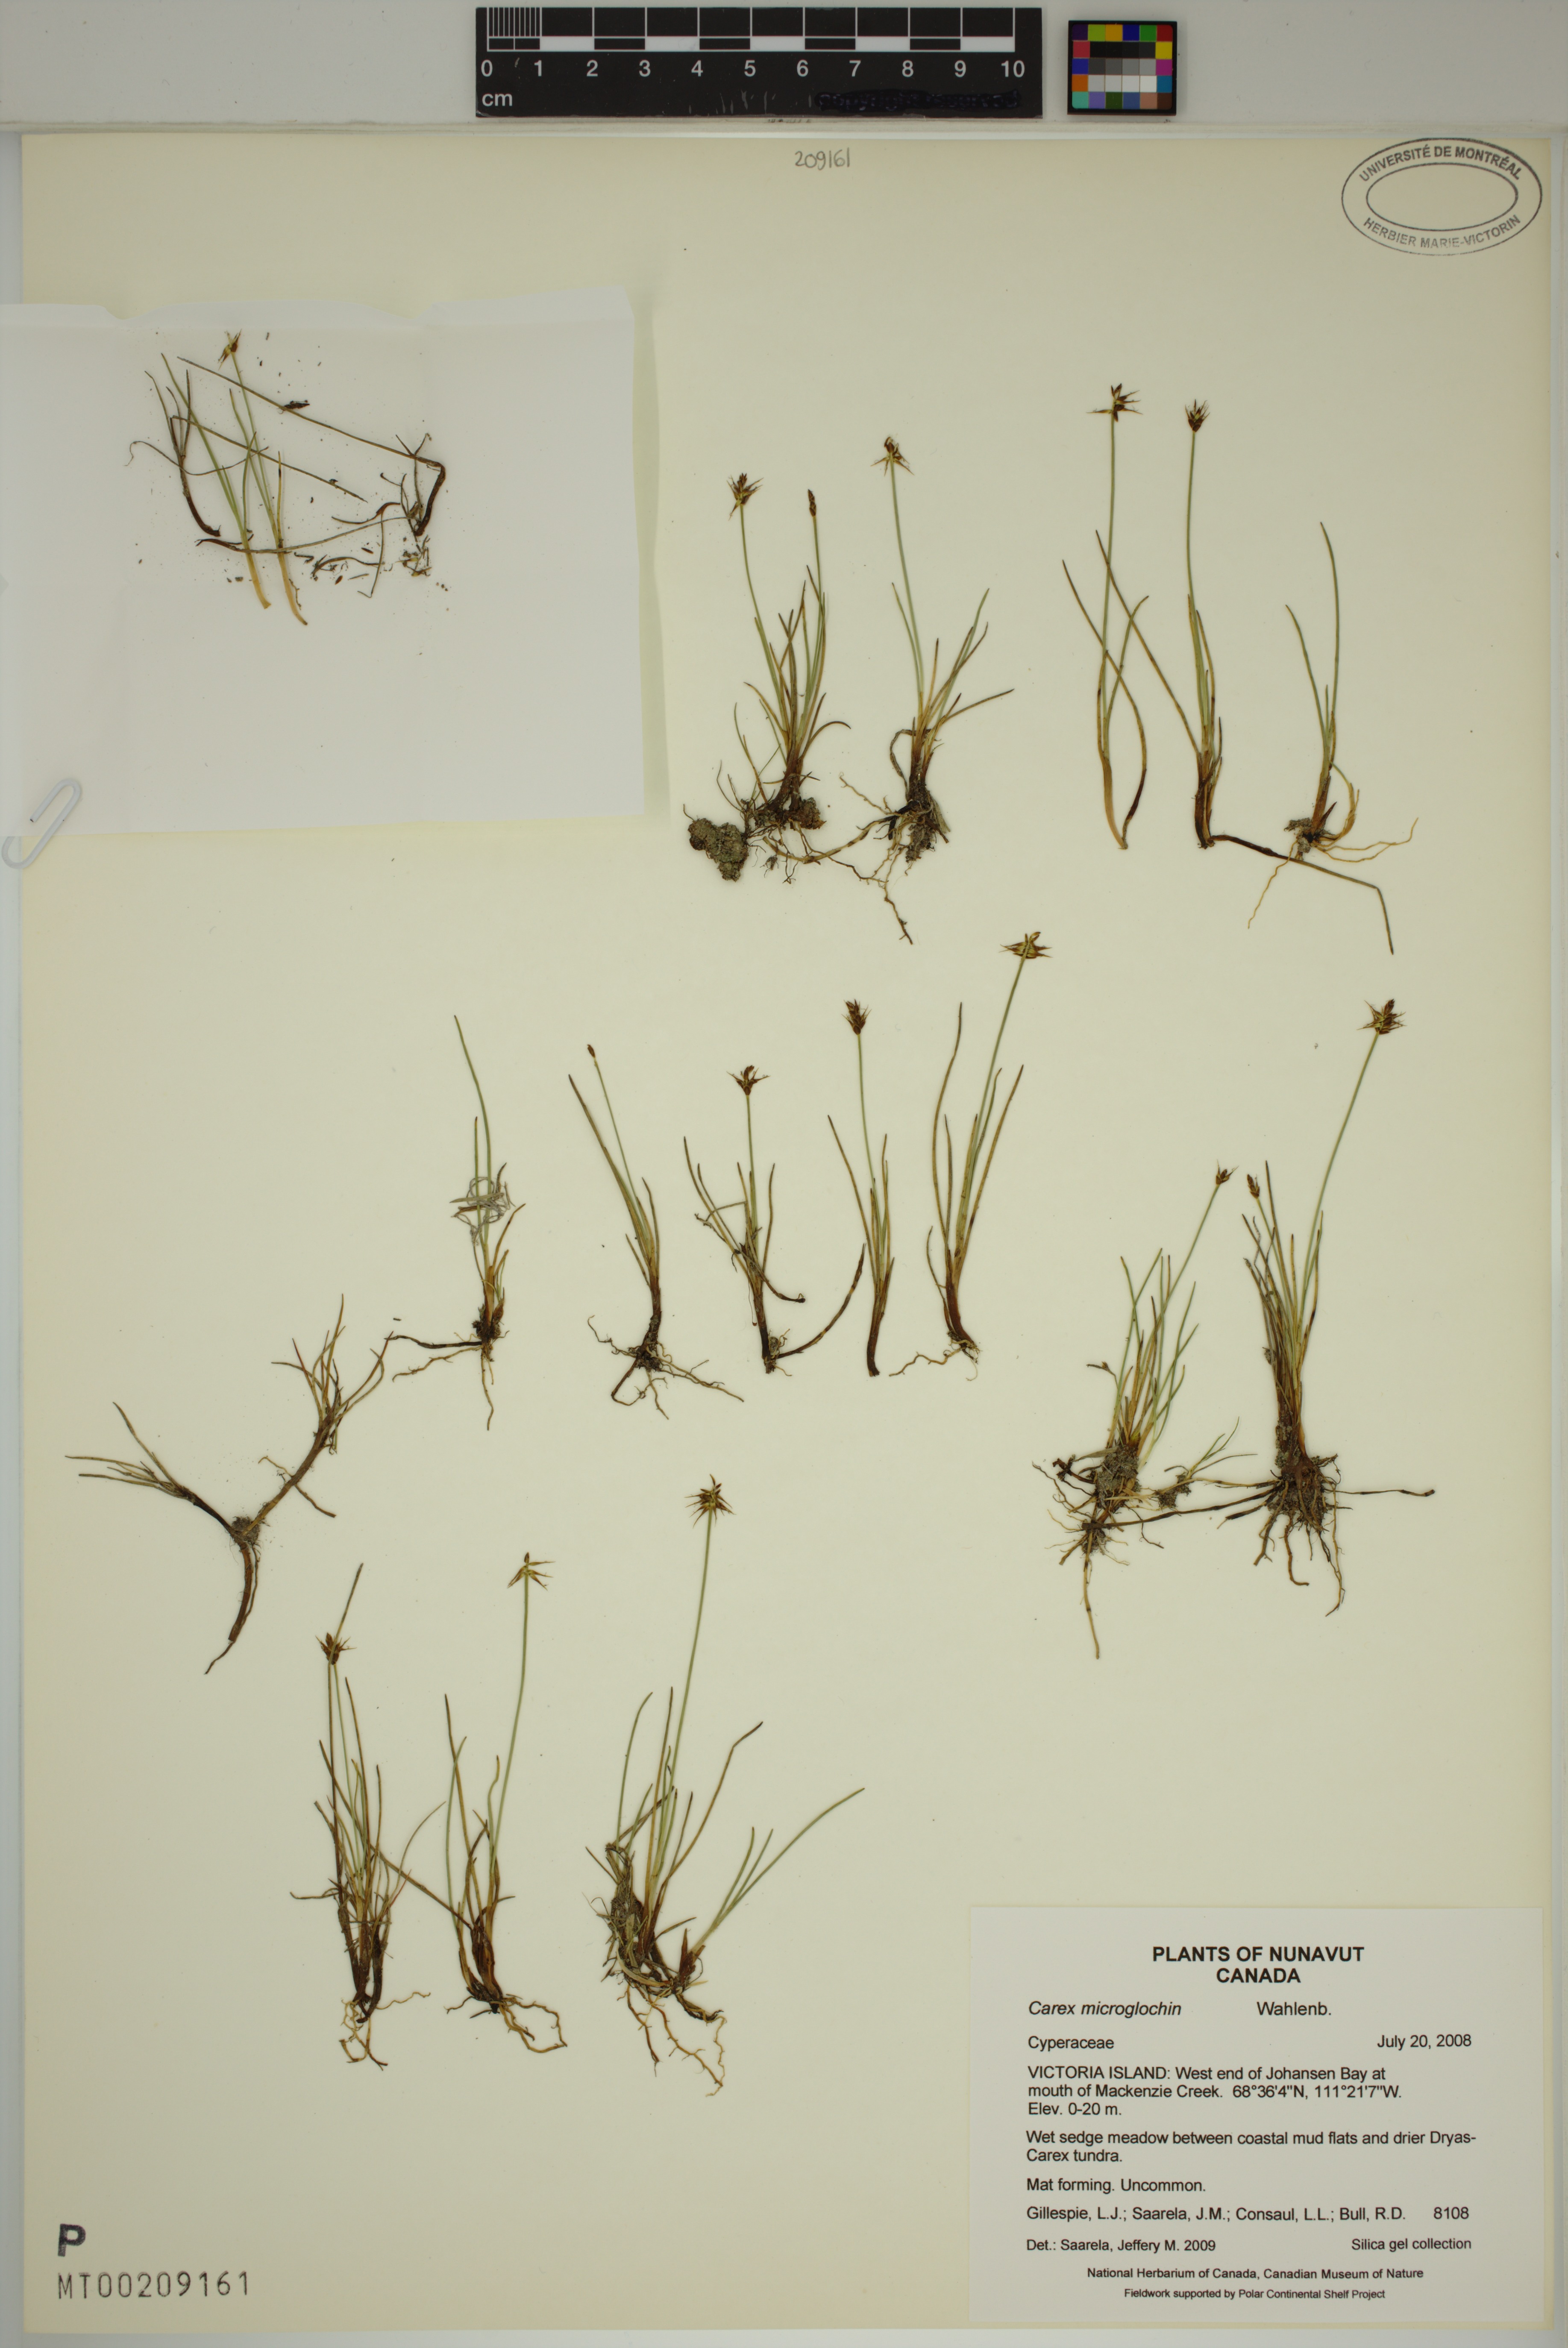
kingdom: Plantae
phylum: Tracheophyta
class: Liliopsida
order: Poales
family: Cyperaceae
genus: Carex
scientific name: Carex microglochin
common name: Bristle sedge
